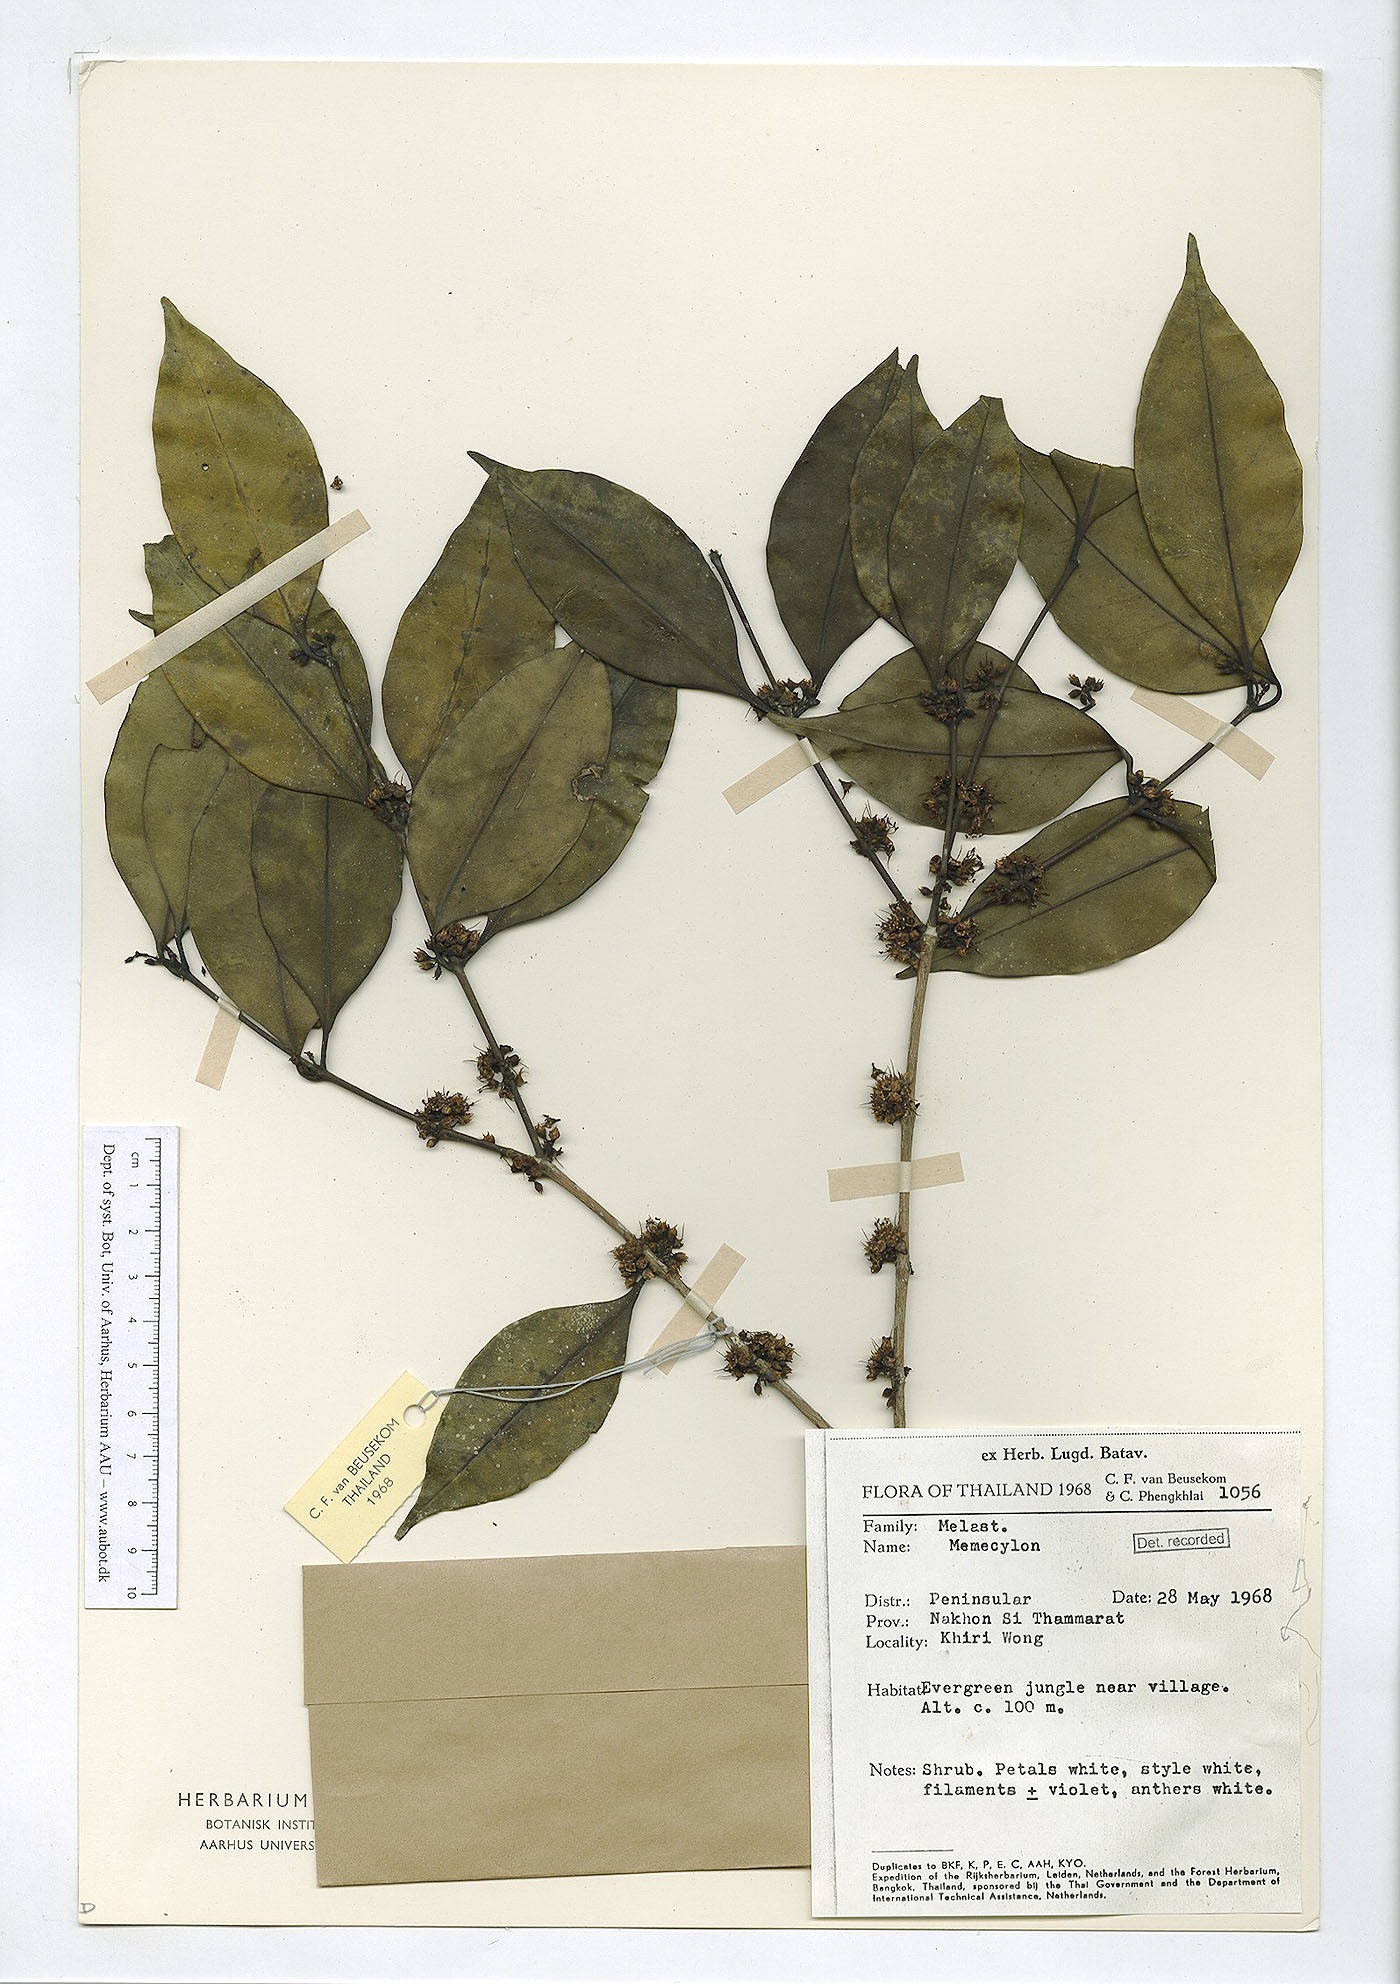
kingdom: Plantae
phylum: Tracheophyta
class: Magnoliopsida
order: Myrtales
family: Melastomataceae
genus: Memecylon
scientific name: Memecylon lilacinum
